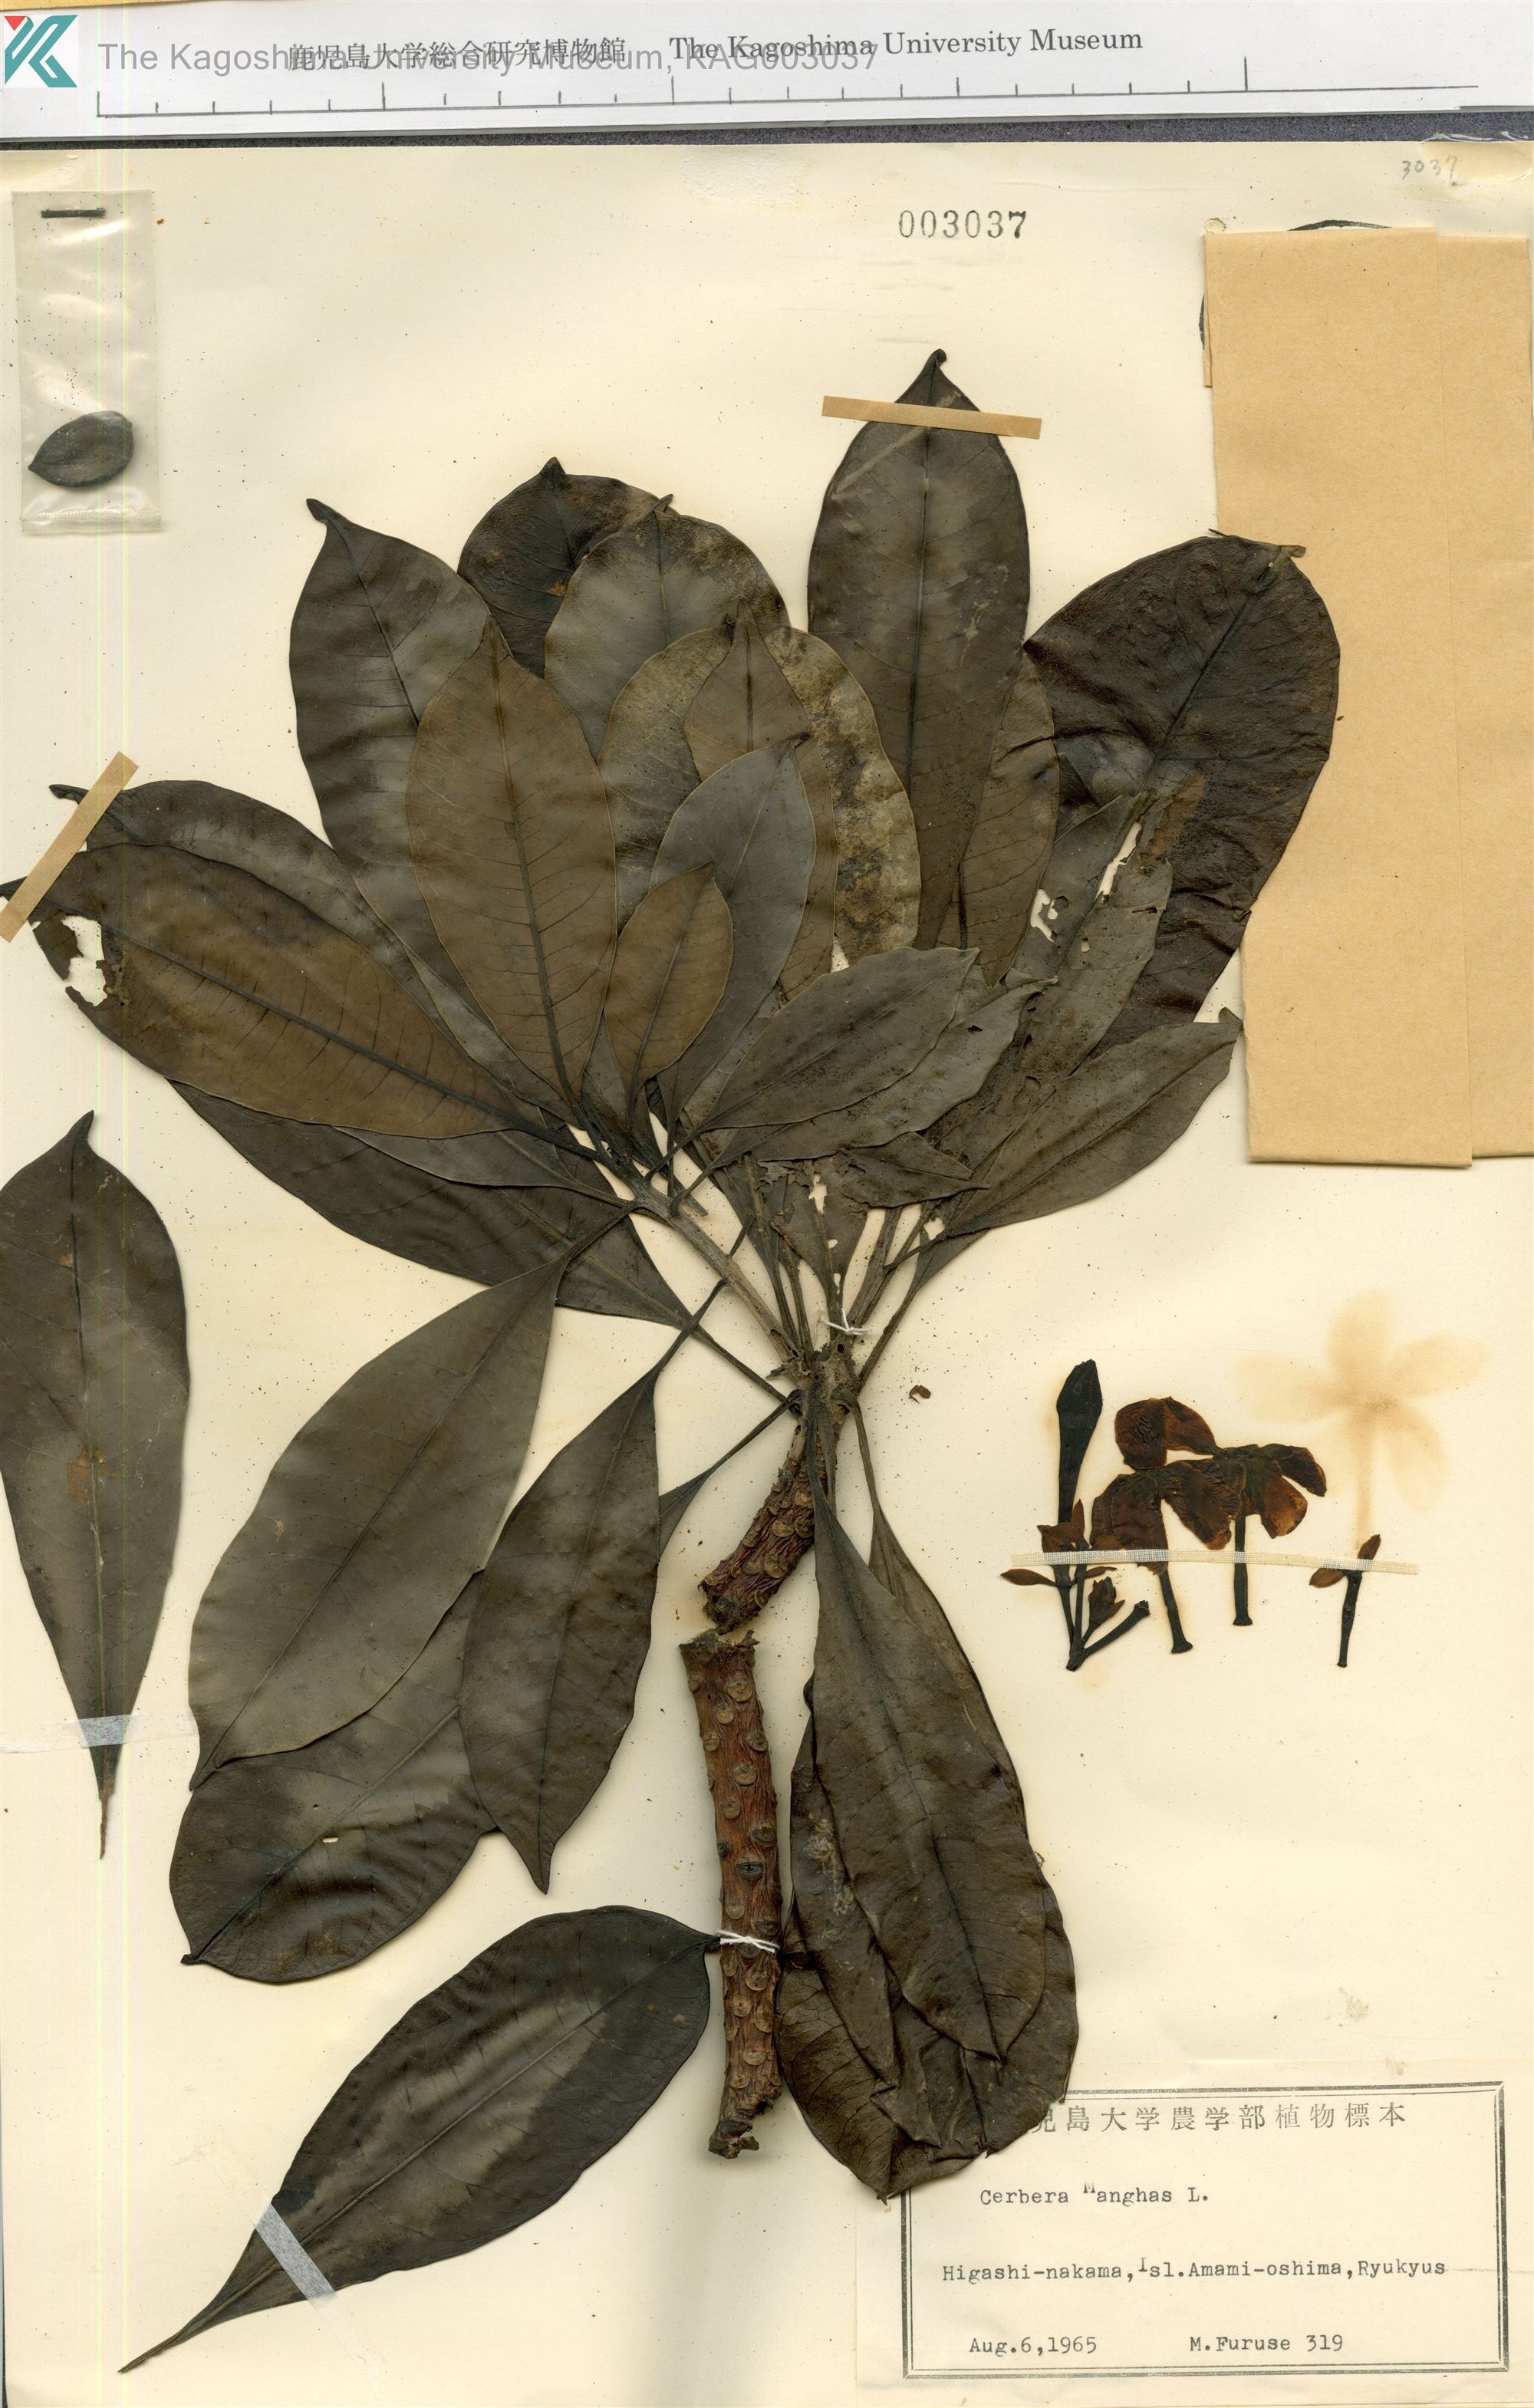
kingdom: Plantae
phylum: Tracheophyta
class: Magnoliopsida
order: Gentianales
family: Apocynaceae
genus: Cerbera
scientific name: Cerbera manghas
